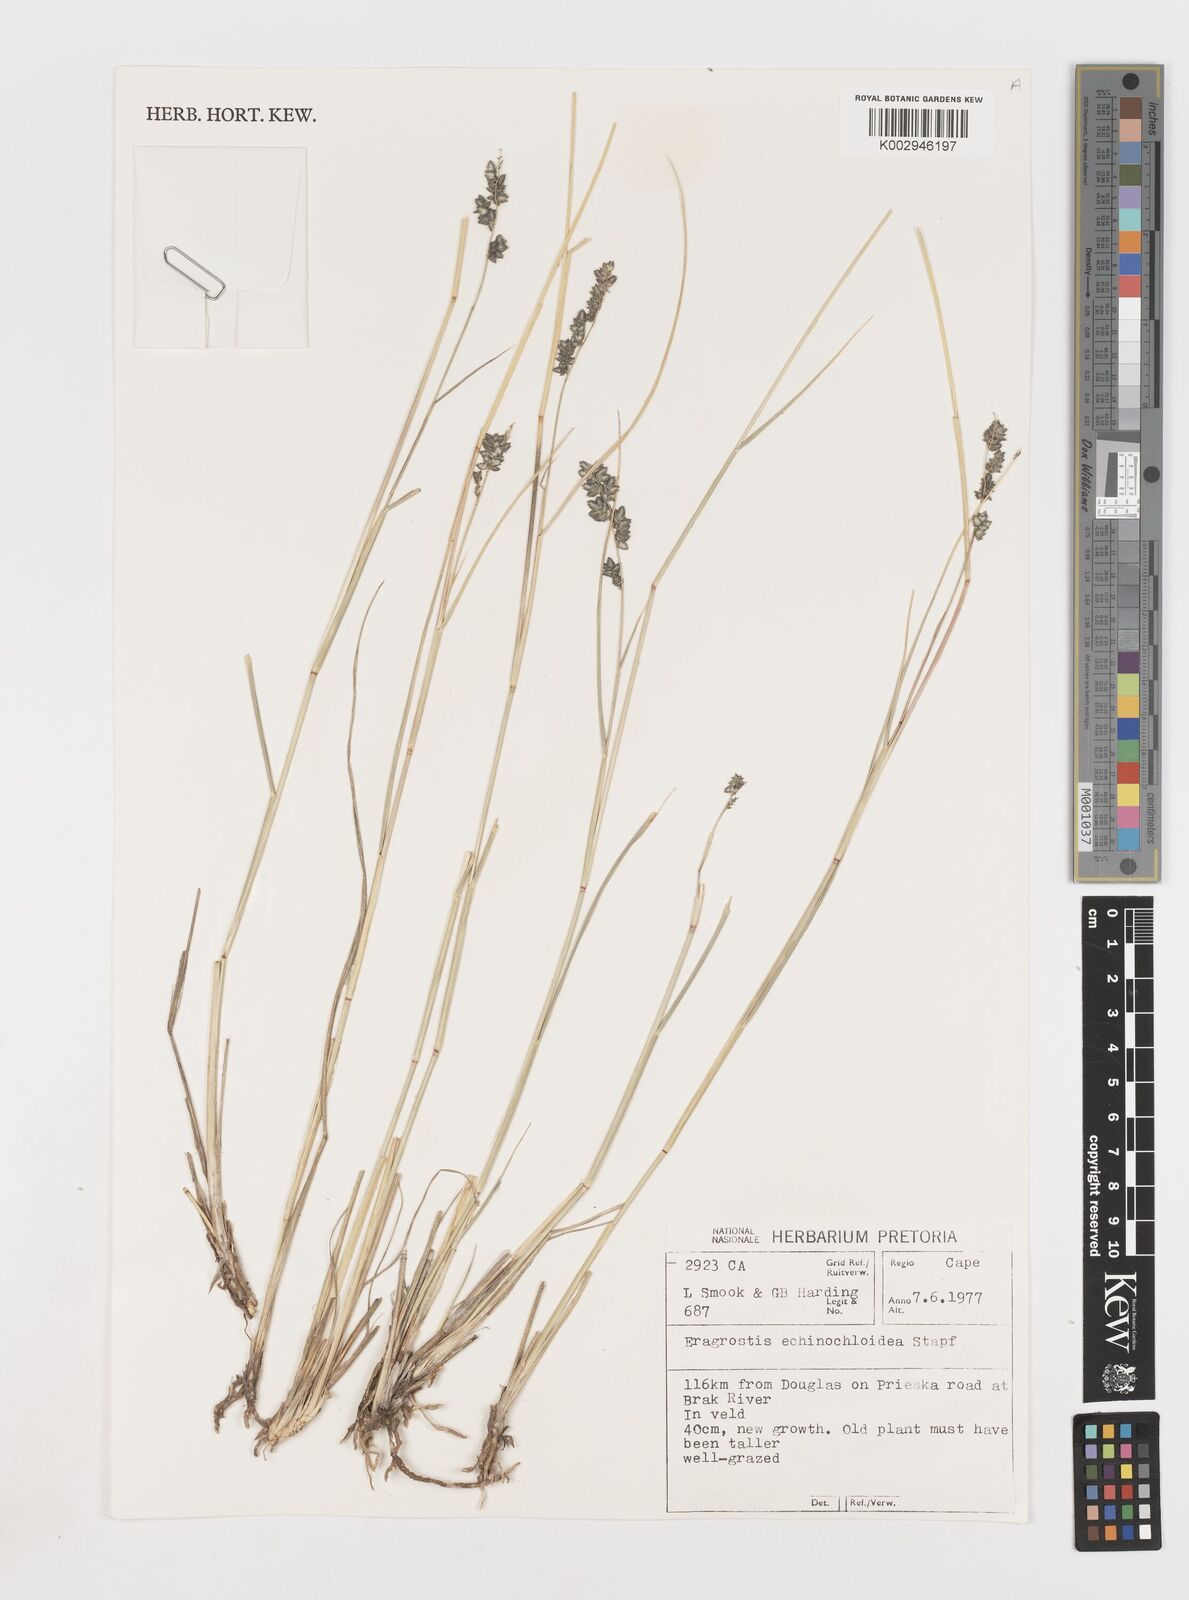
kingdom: Plantae
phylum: Tracheophyta
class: Liliopsida
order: Poales
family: Poaceae
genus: Eragrostis
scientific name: Eragrostis echinochloidea
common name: African lovegrass
